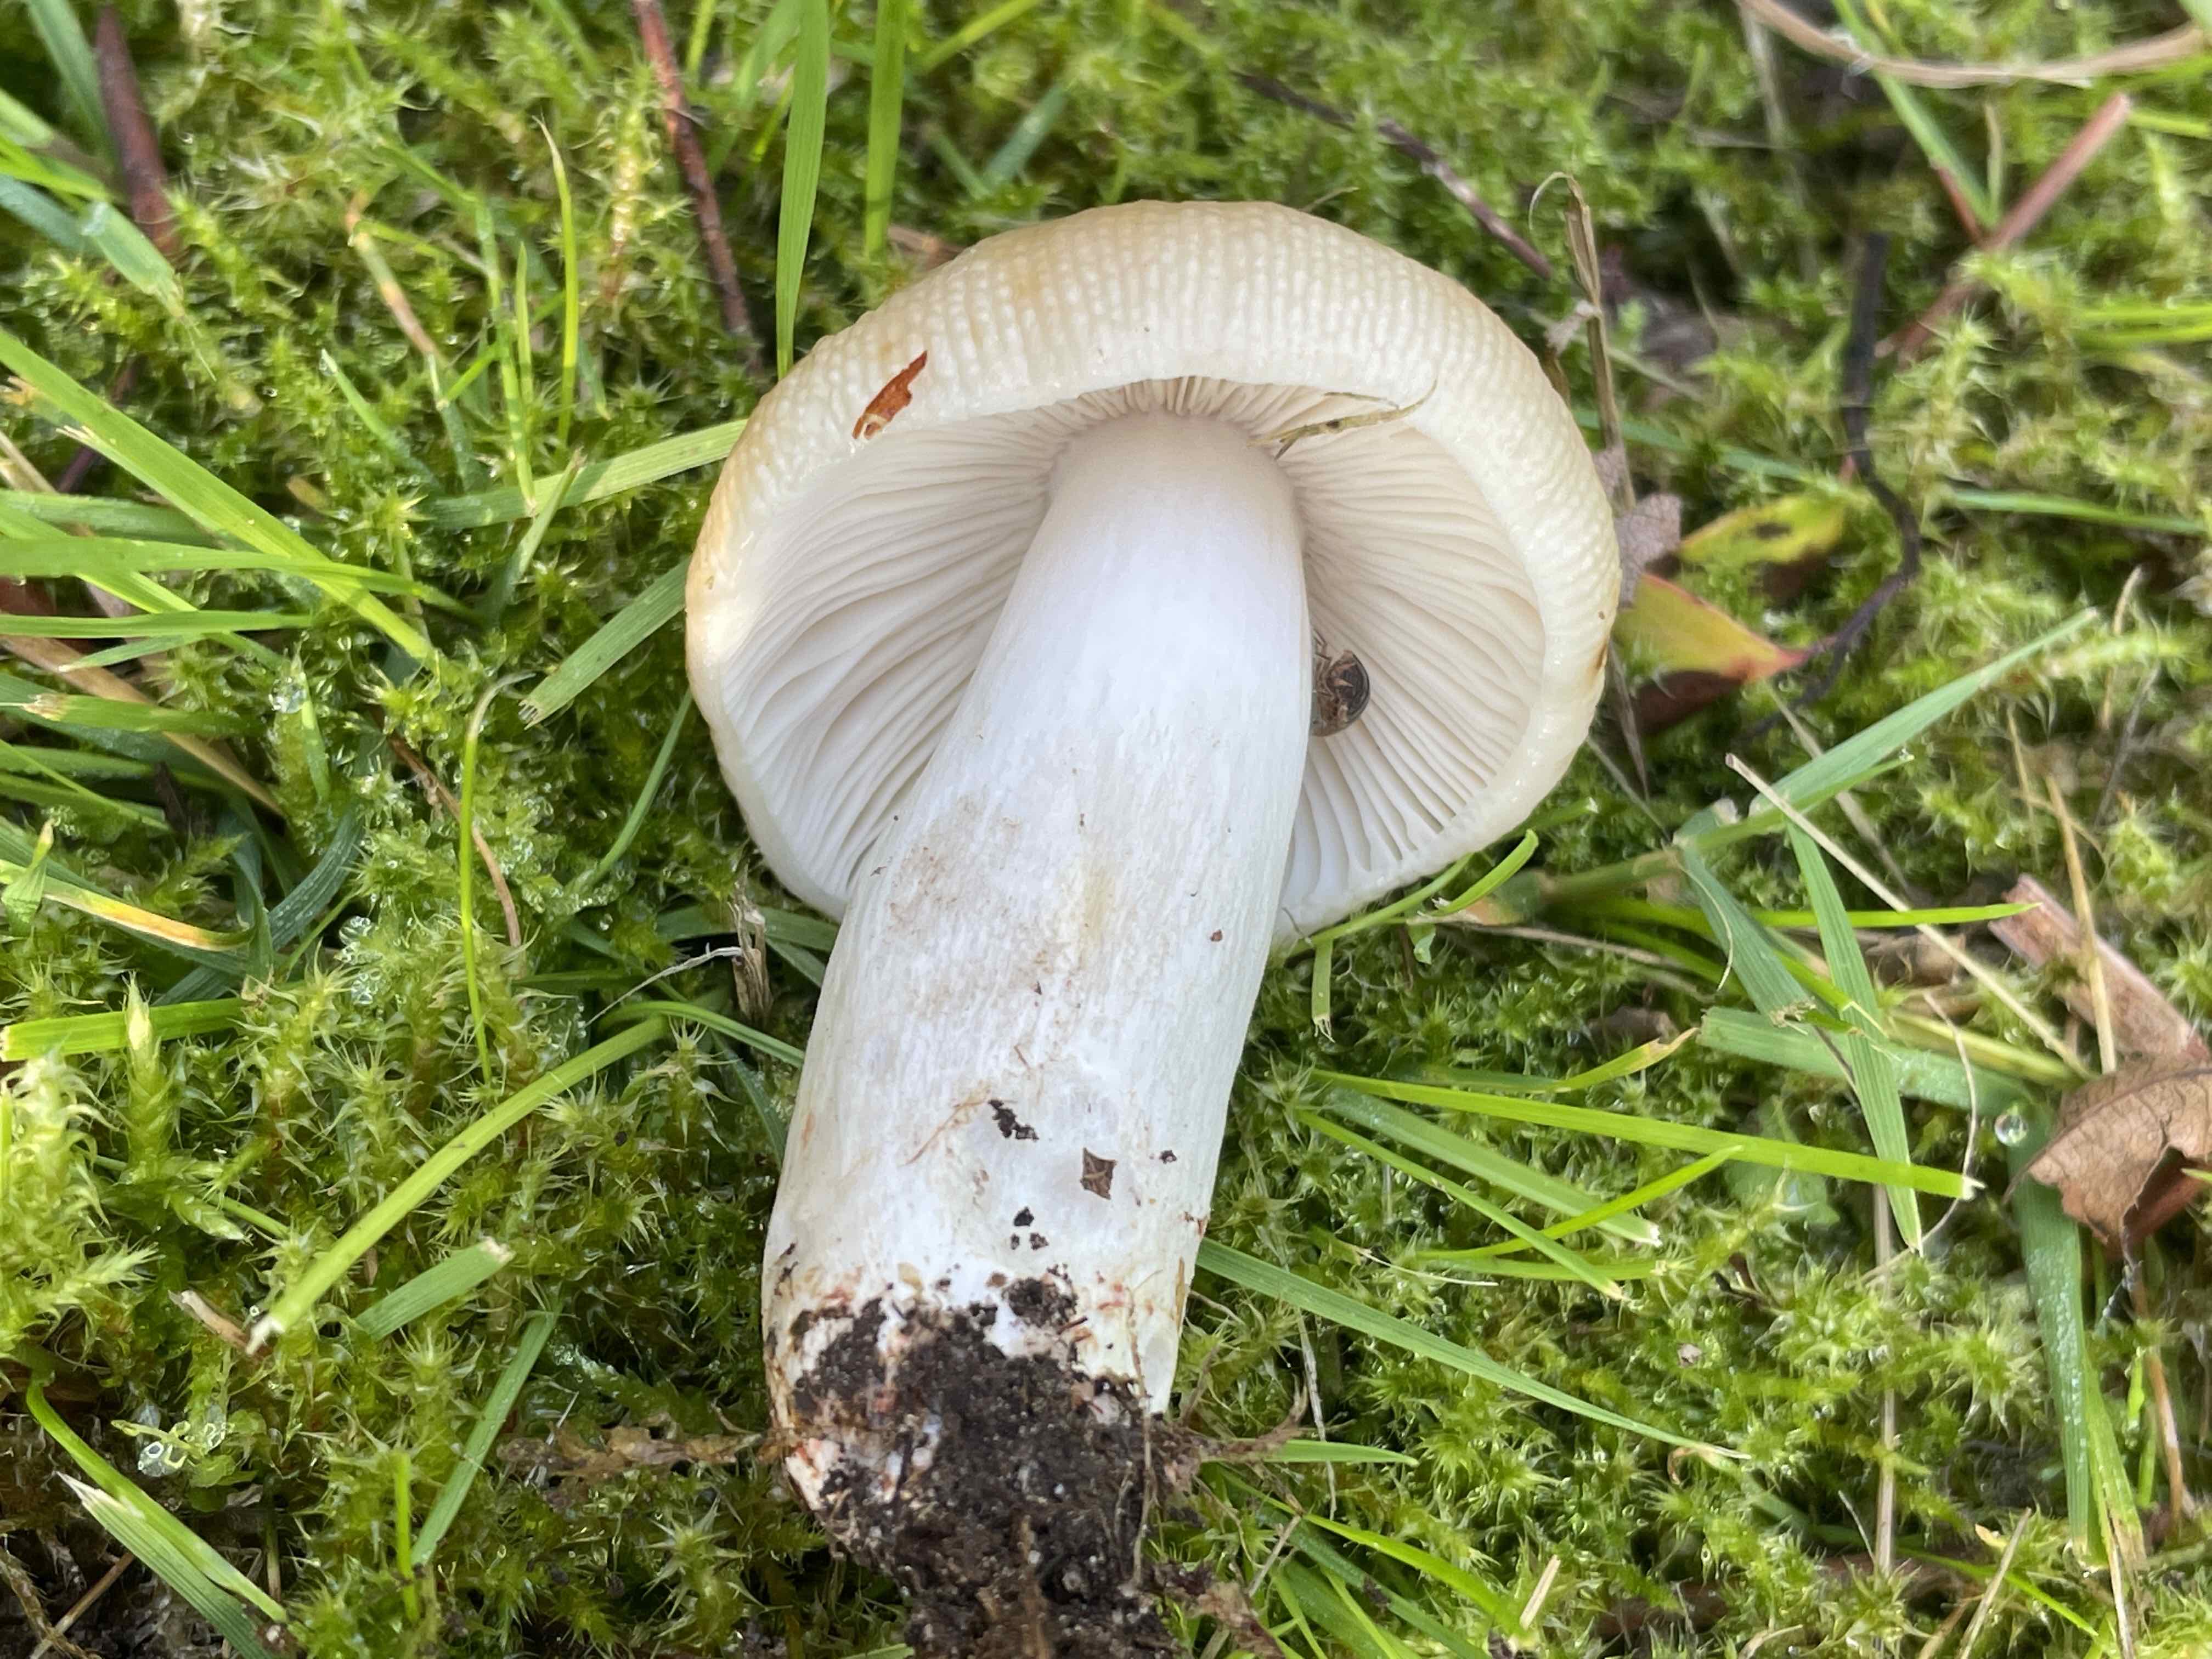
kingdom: Fungi
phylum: Basidiomycota
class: Agaricomycetes
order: Russulales
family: Russulaceae
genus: Russula
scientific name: Russula recondita
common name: mild kam-skørhat
